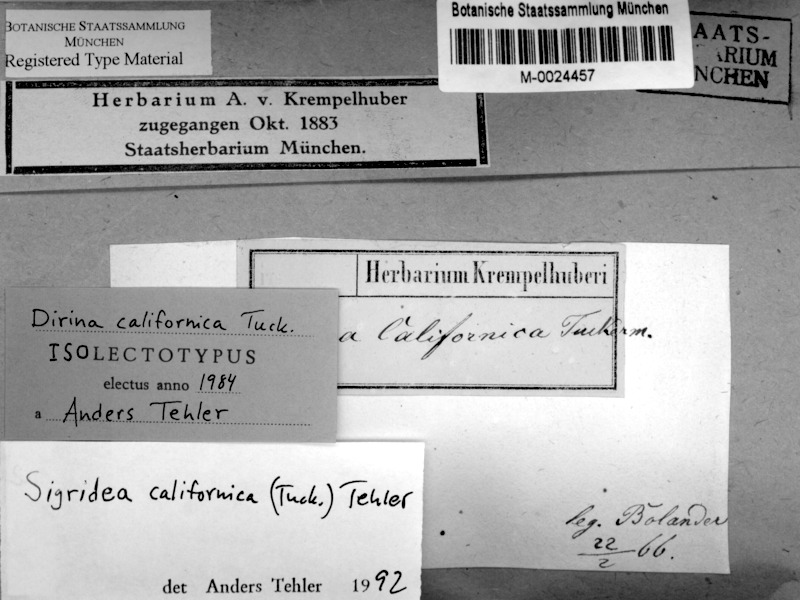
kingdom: Fungi
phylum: Ascomycota
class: Arthoniomycetes
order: Arthoniales
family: Roccellaceae
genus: Sigridea
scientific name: Sigridea californica
